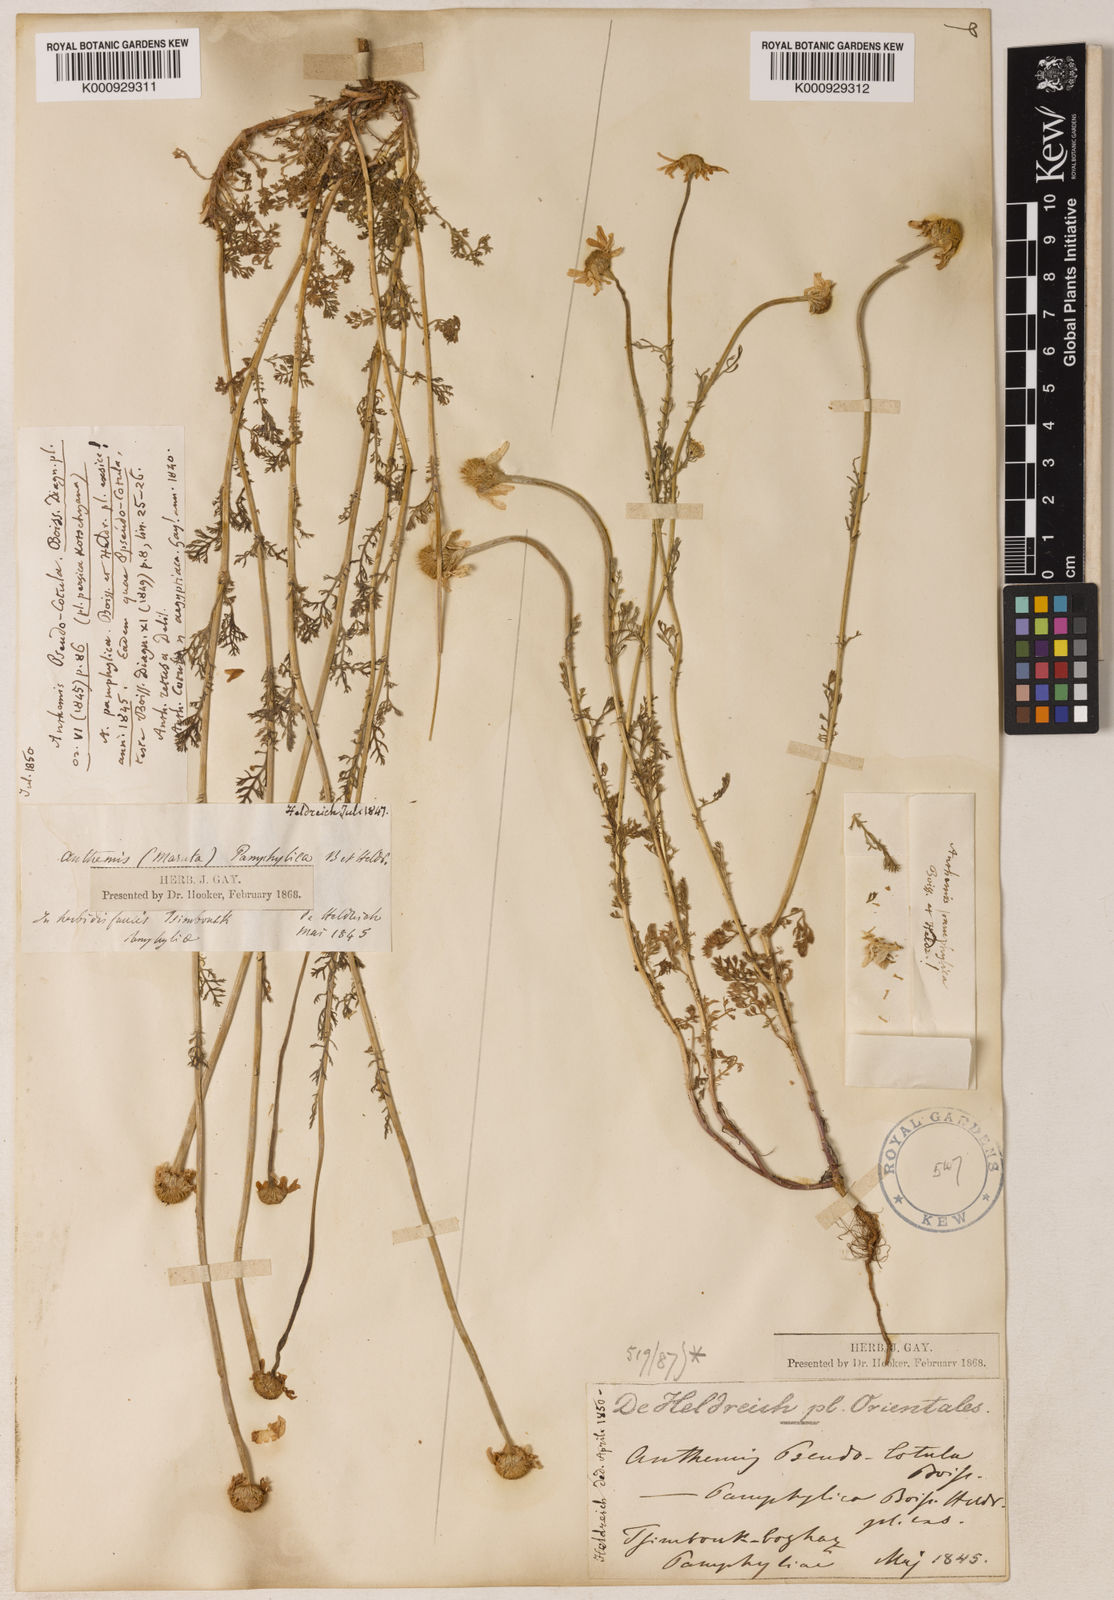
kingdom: Plantae
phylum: Tracheophyta
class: Magnoliopsida
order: Asterales
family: Asteraceae
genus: Anthemis
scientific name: Anthemis pseudocotula
